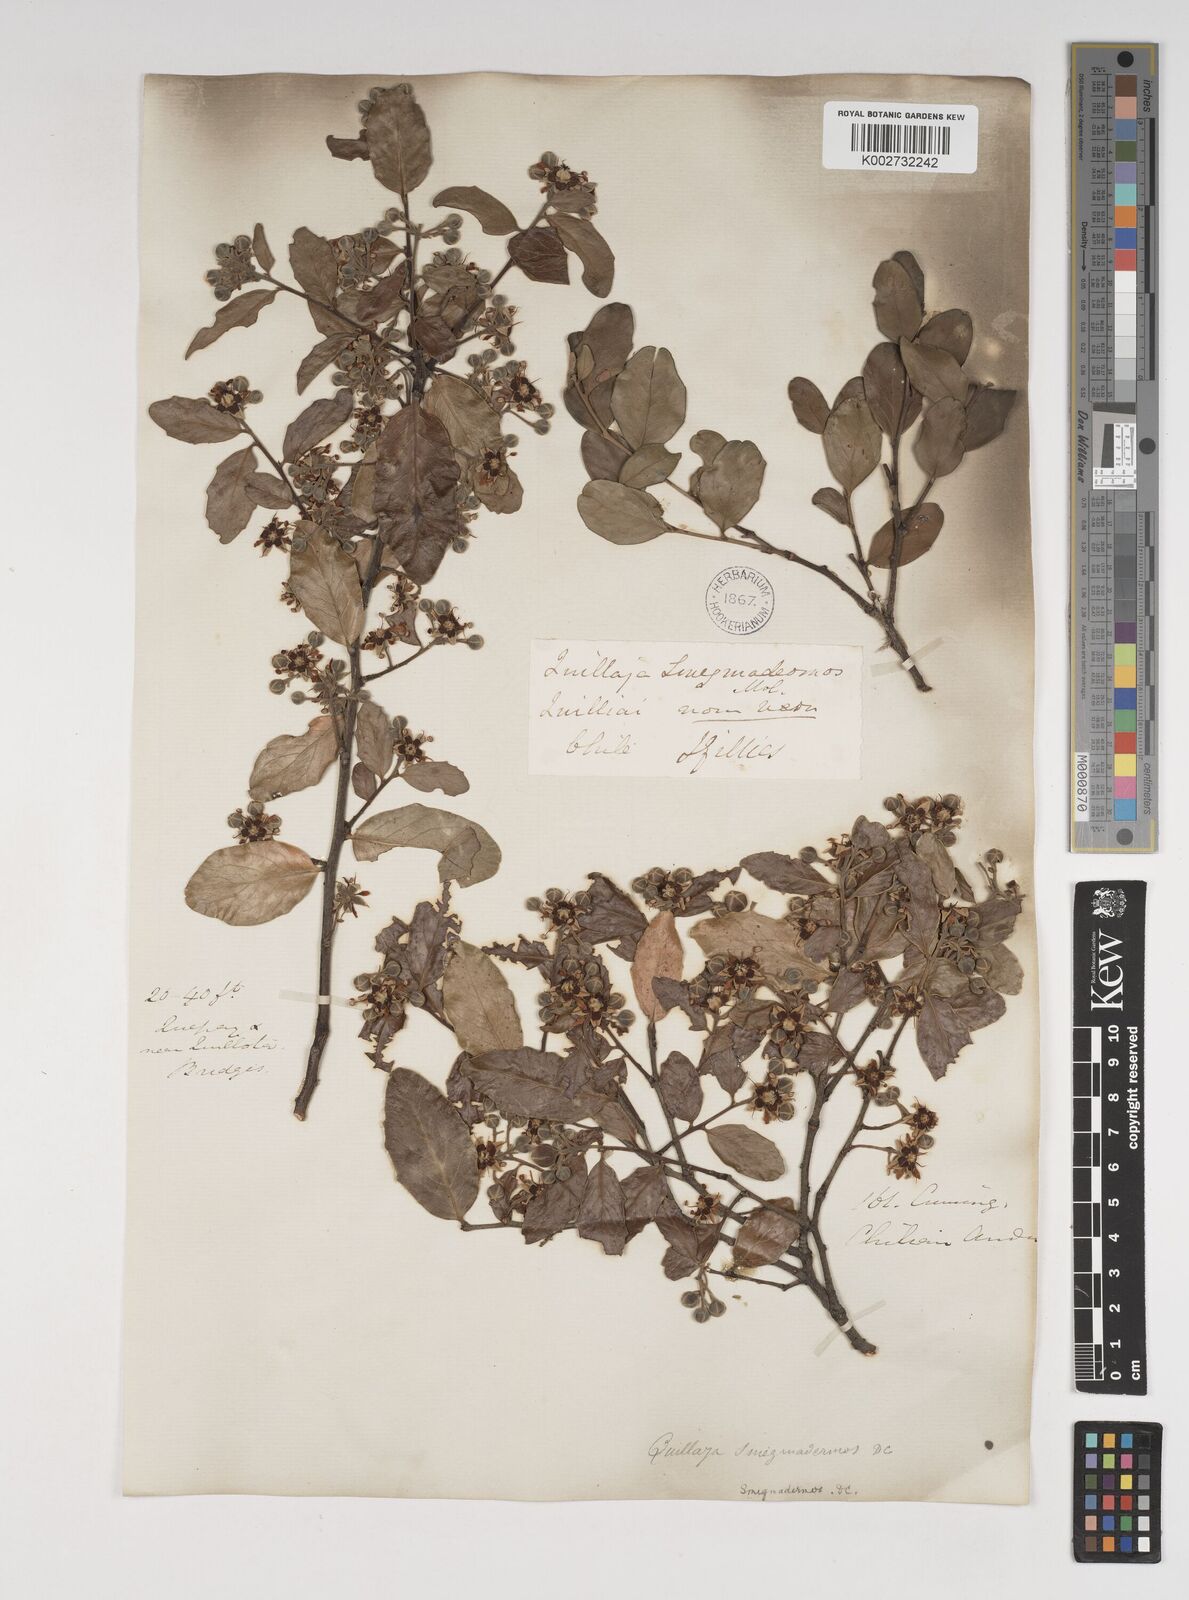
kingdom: Plantae
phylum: Tracheophyta
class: Magnoliopsida
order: Fabales
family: Quillajaceae
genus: Quillaja
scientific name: Quillaja saponaria
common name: Murillo's-bark
